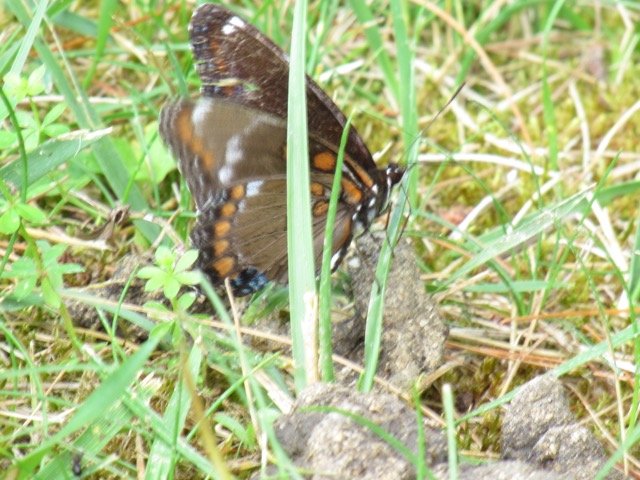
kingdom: Animalia
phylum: Arthropoda
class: Insecta
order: Lepidoptera
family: Nymphalidae
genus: Limenitis
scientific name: Limenitis
